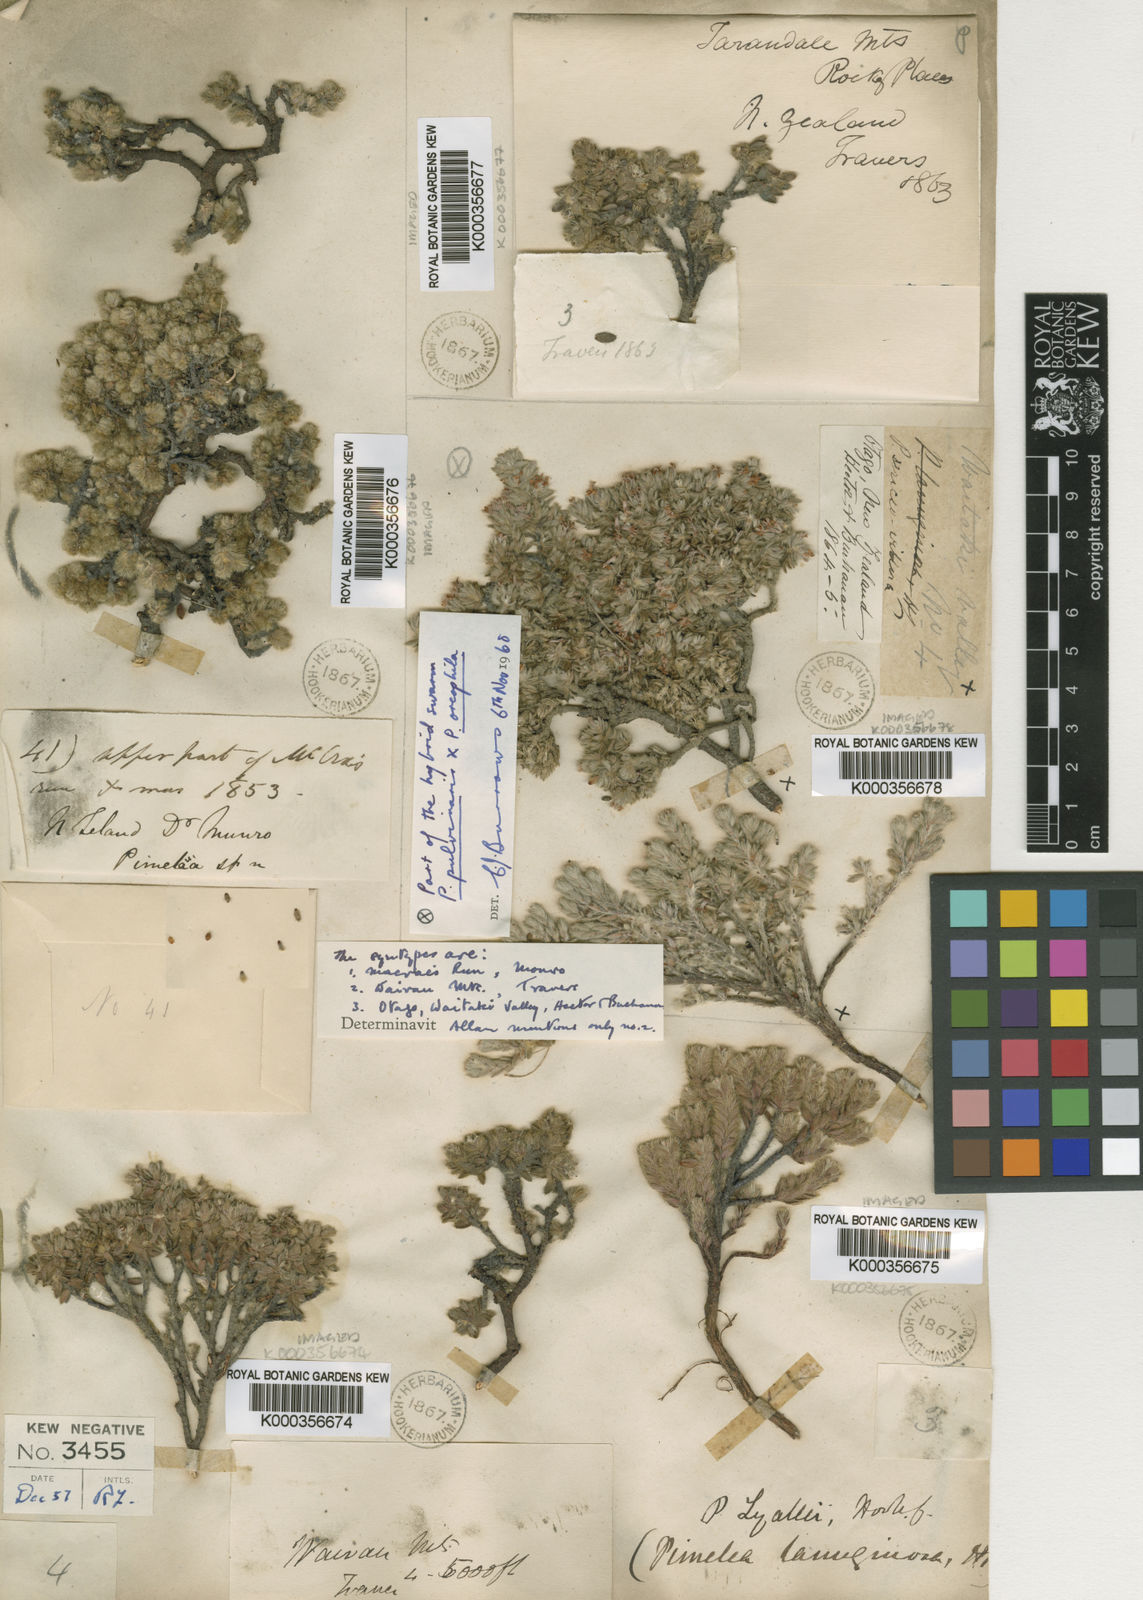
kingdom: Plantae
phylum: Tracheophyta
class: Magnoliopsida
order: Malvales
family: Thymelaeaceae
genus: Pimelea
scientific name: Pimelea sericeovillosa
